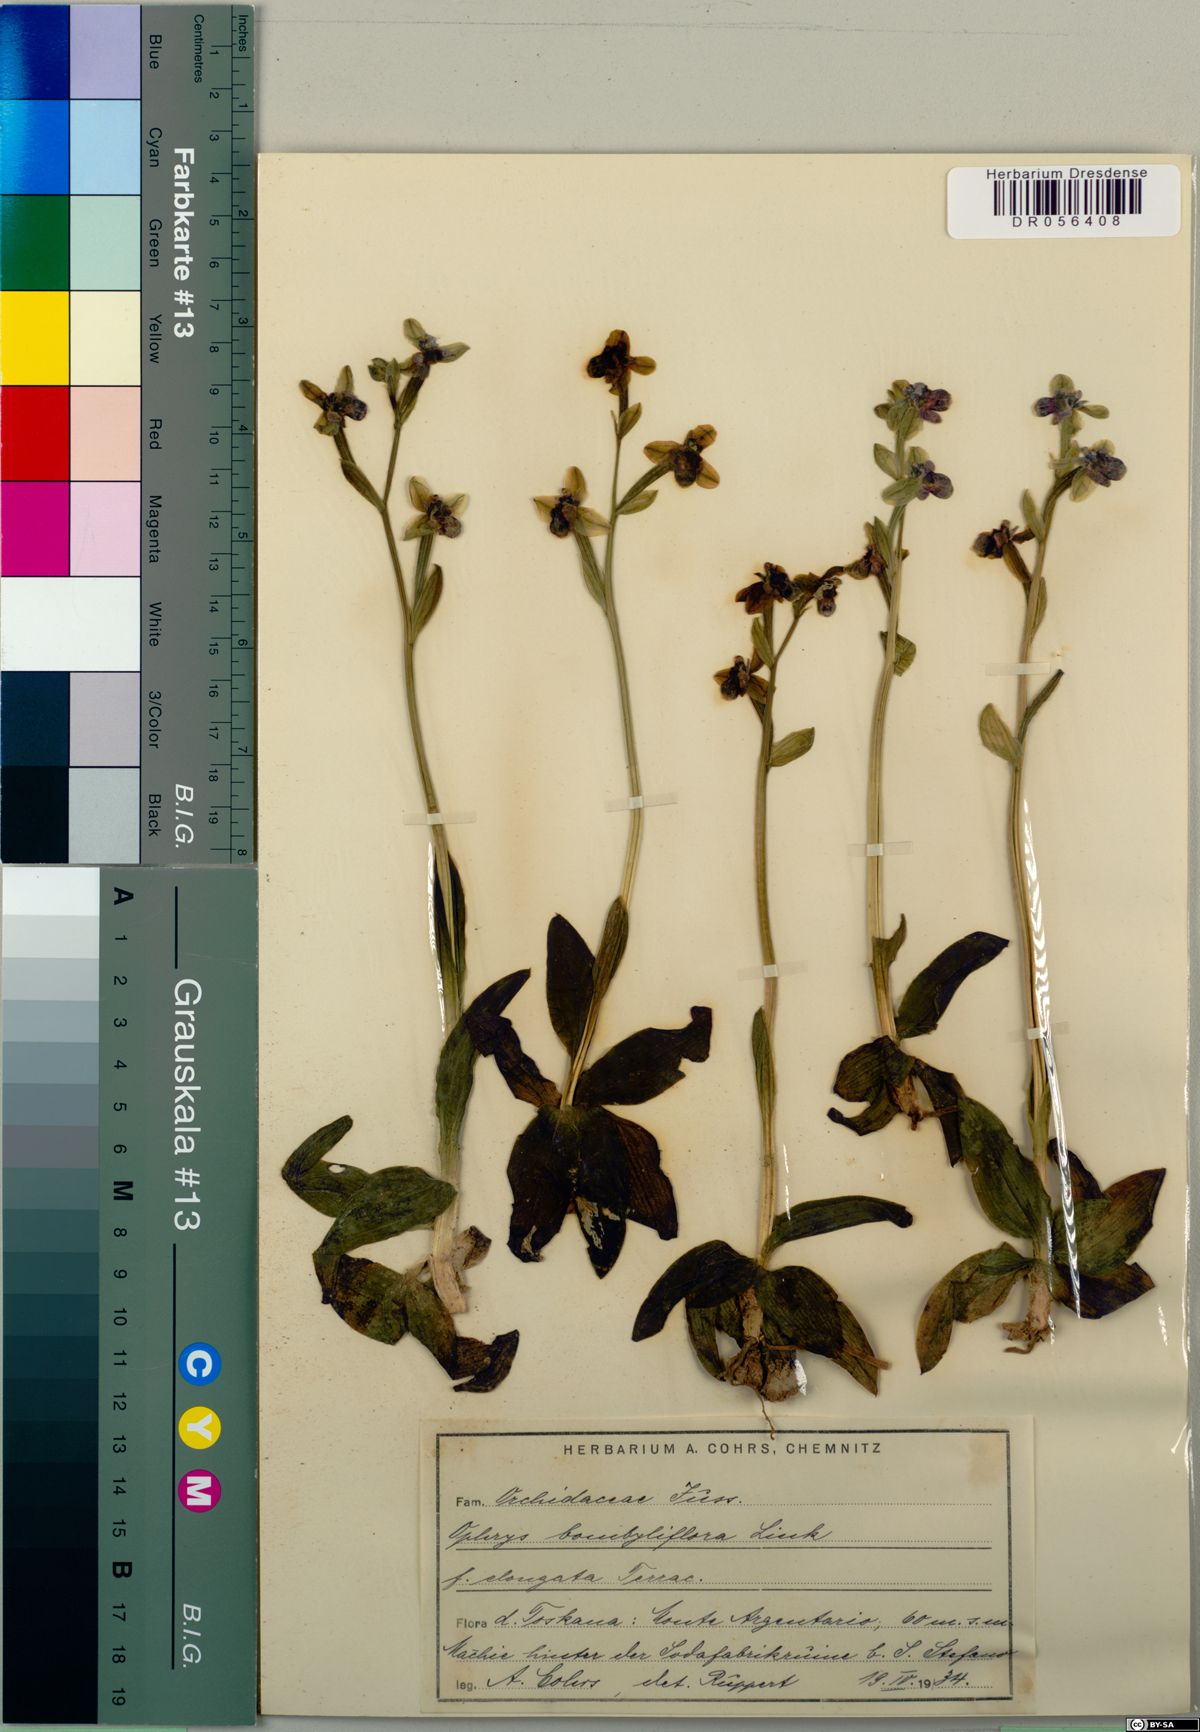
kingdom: Plantae
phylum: Tracheophyta
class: Liliopsida
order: Asparagales
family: Orchidaceae
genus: Ophrys
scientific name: Ophrys bombyliflora
